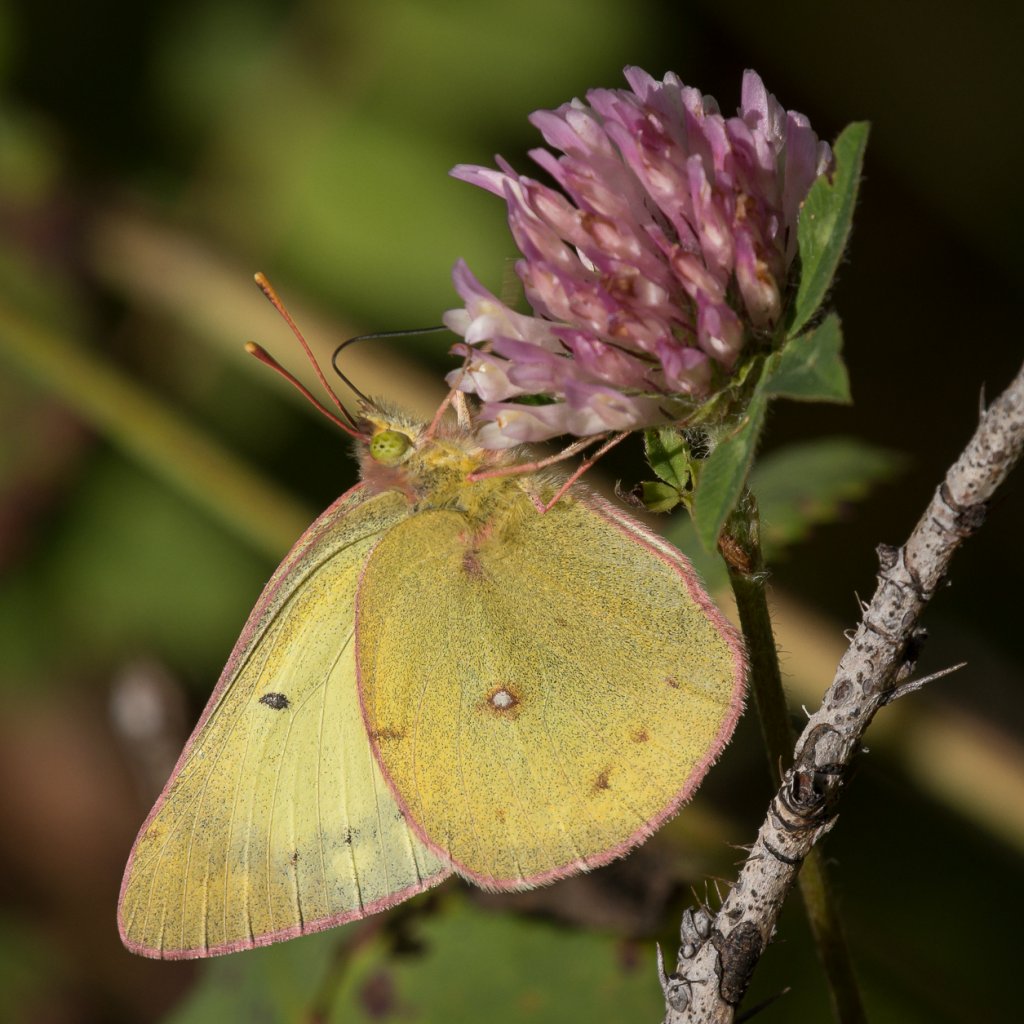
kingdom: Animalia
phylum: Arthropoda
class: Insecta
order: Lepidoptera
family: Pieridae
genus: Colias
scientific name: Colias philodice
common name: Clouded Sulphur
